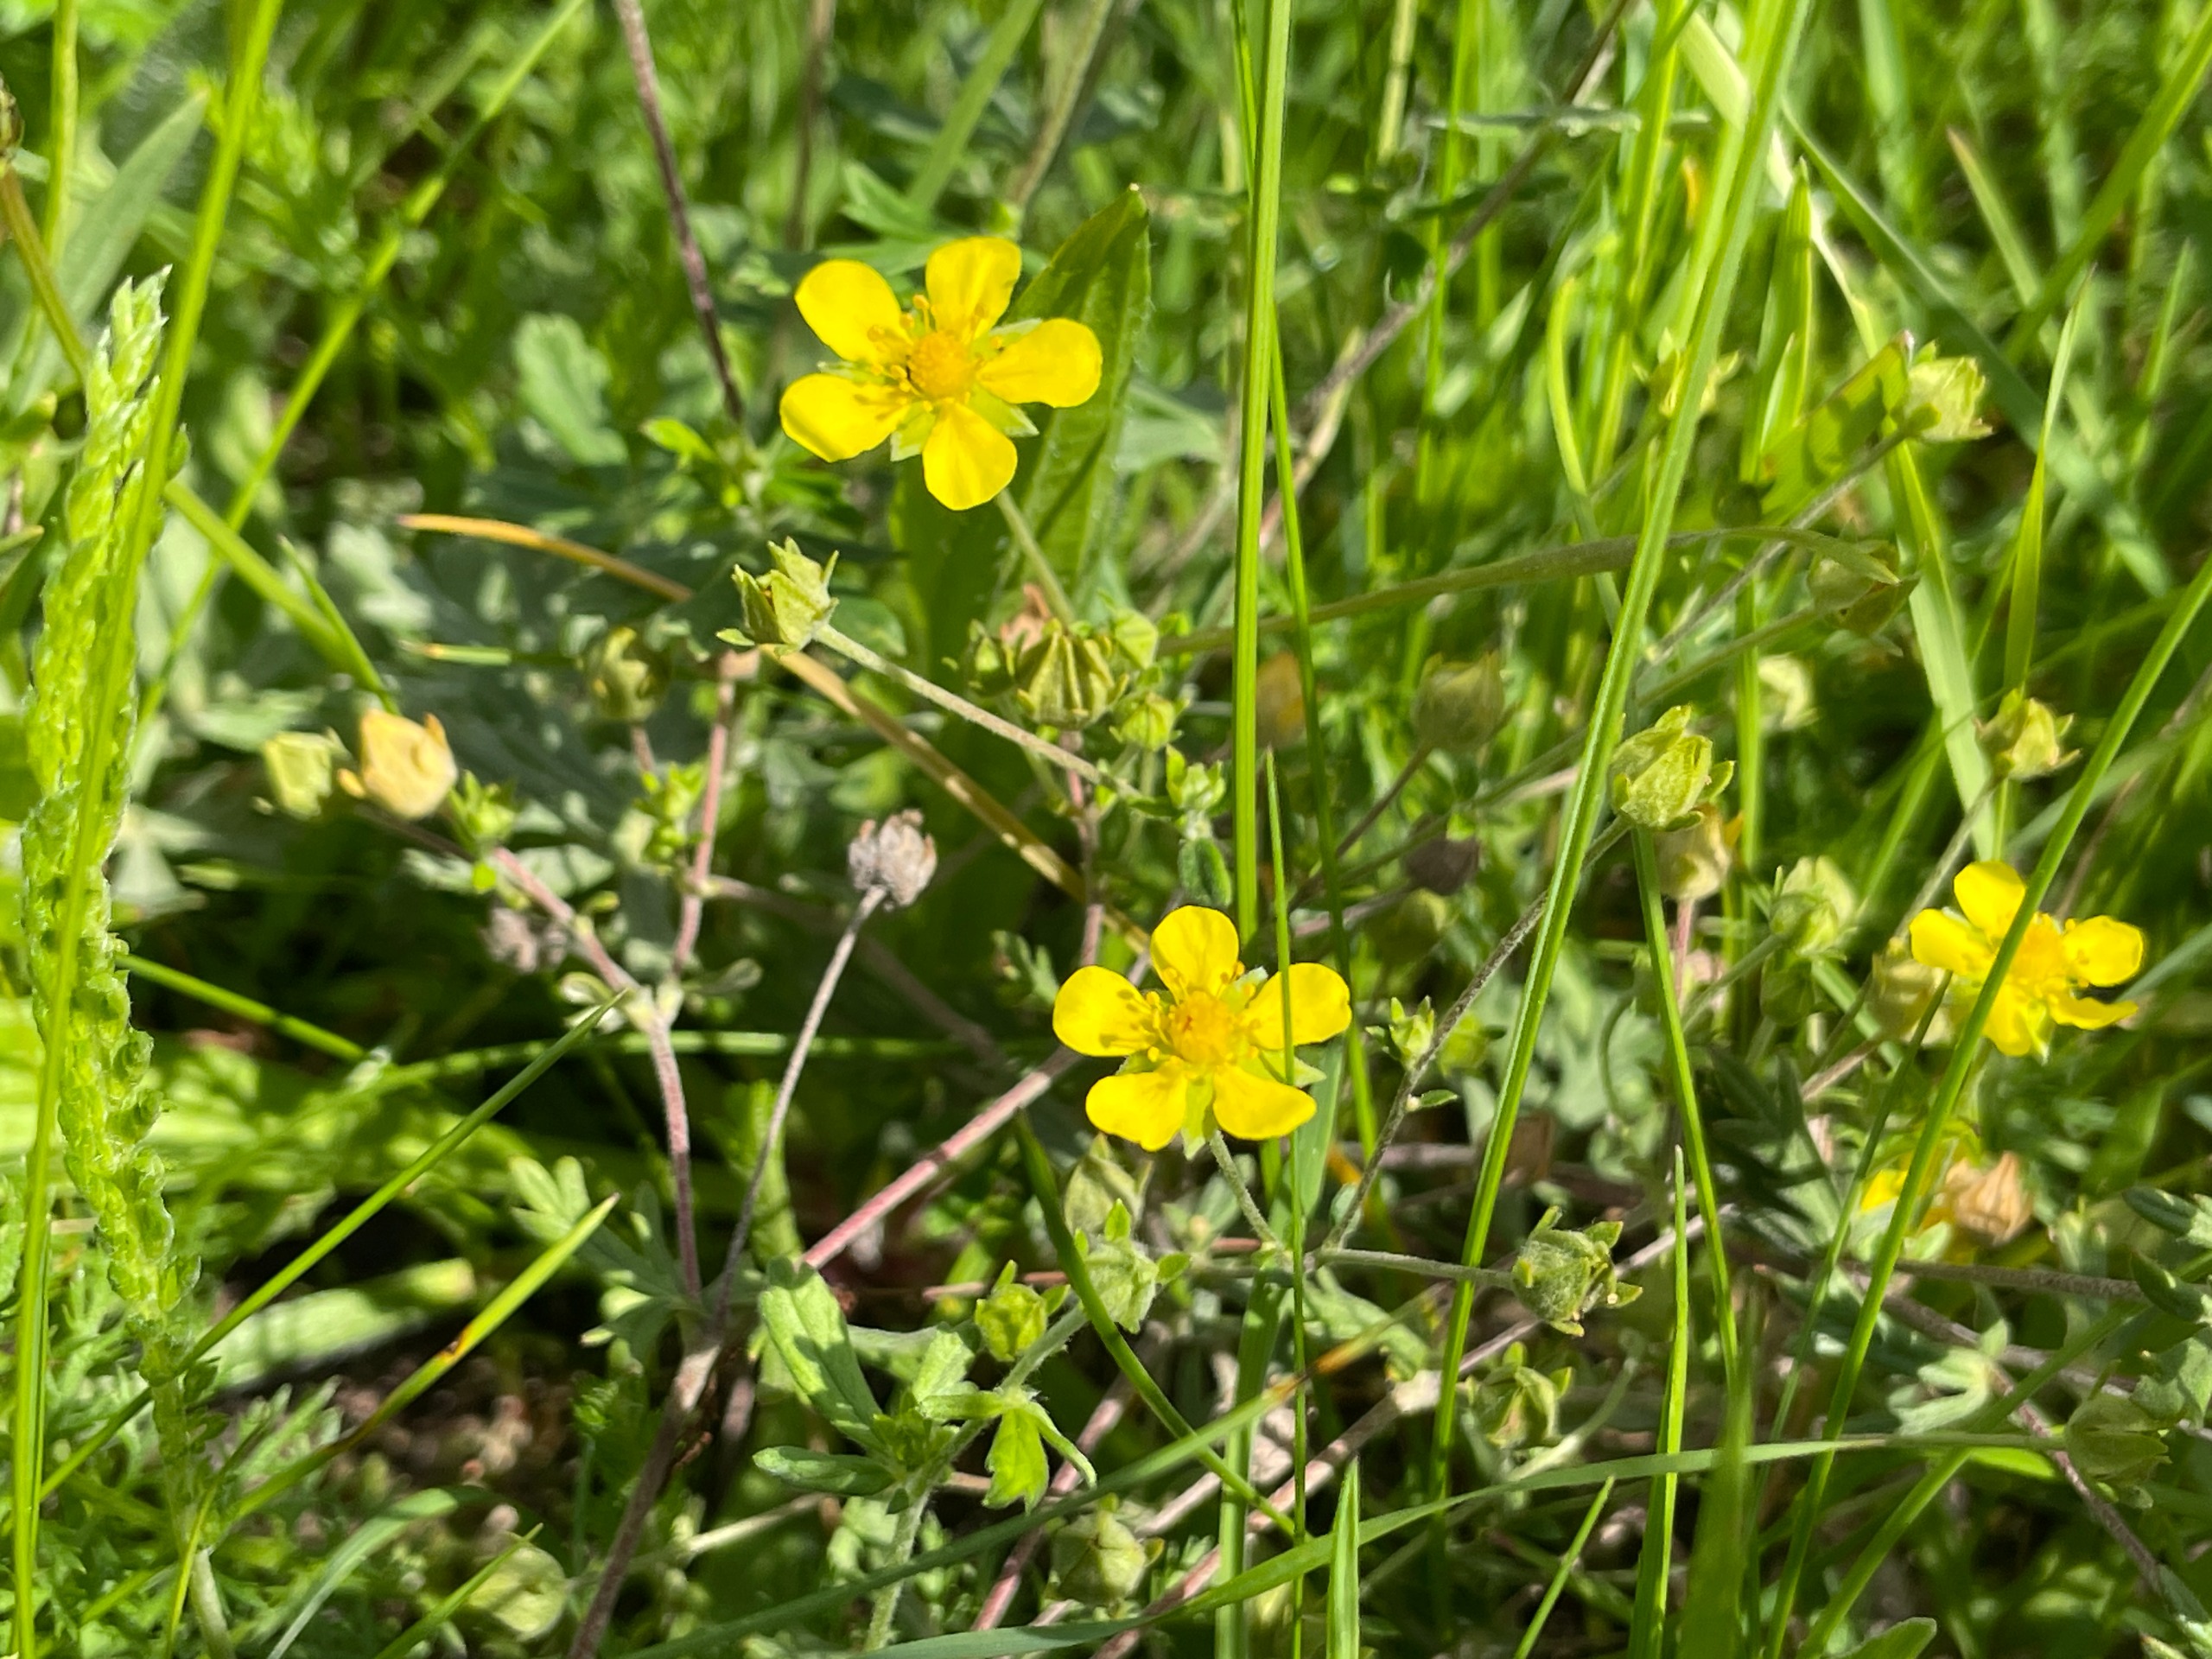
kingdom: Plantae
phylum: Tracheophyta
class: Magnoliopsida
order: Rosales
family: Rosaceae
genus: Potentilla
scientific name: Potentilla argentea
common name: Sølv-potentil
